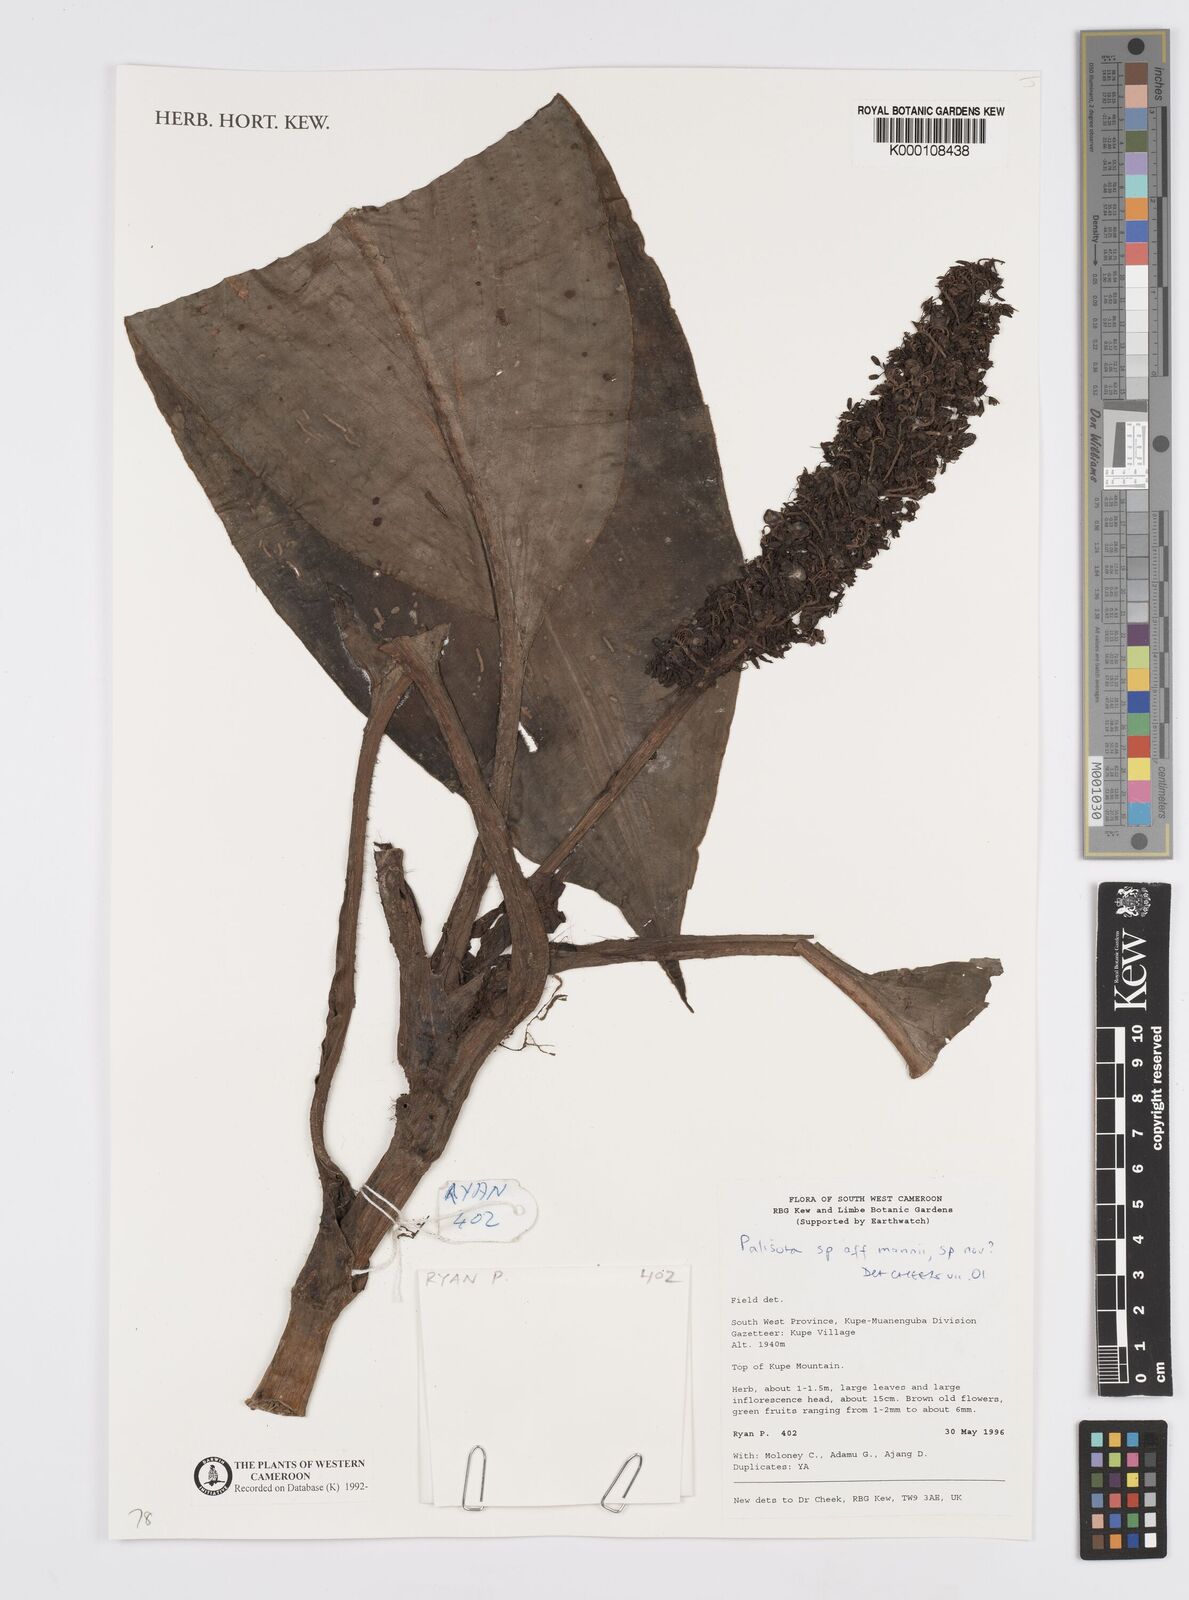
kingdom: Plantae
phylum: Tracheophyta
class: Liliopsida
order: Commelinales
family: Commelinaceae
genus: Palisota
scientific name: Palisota
